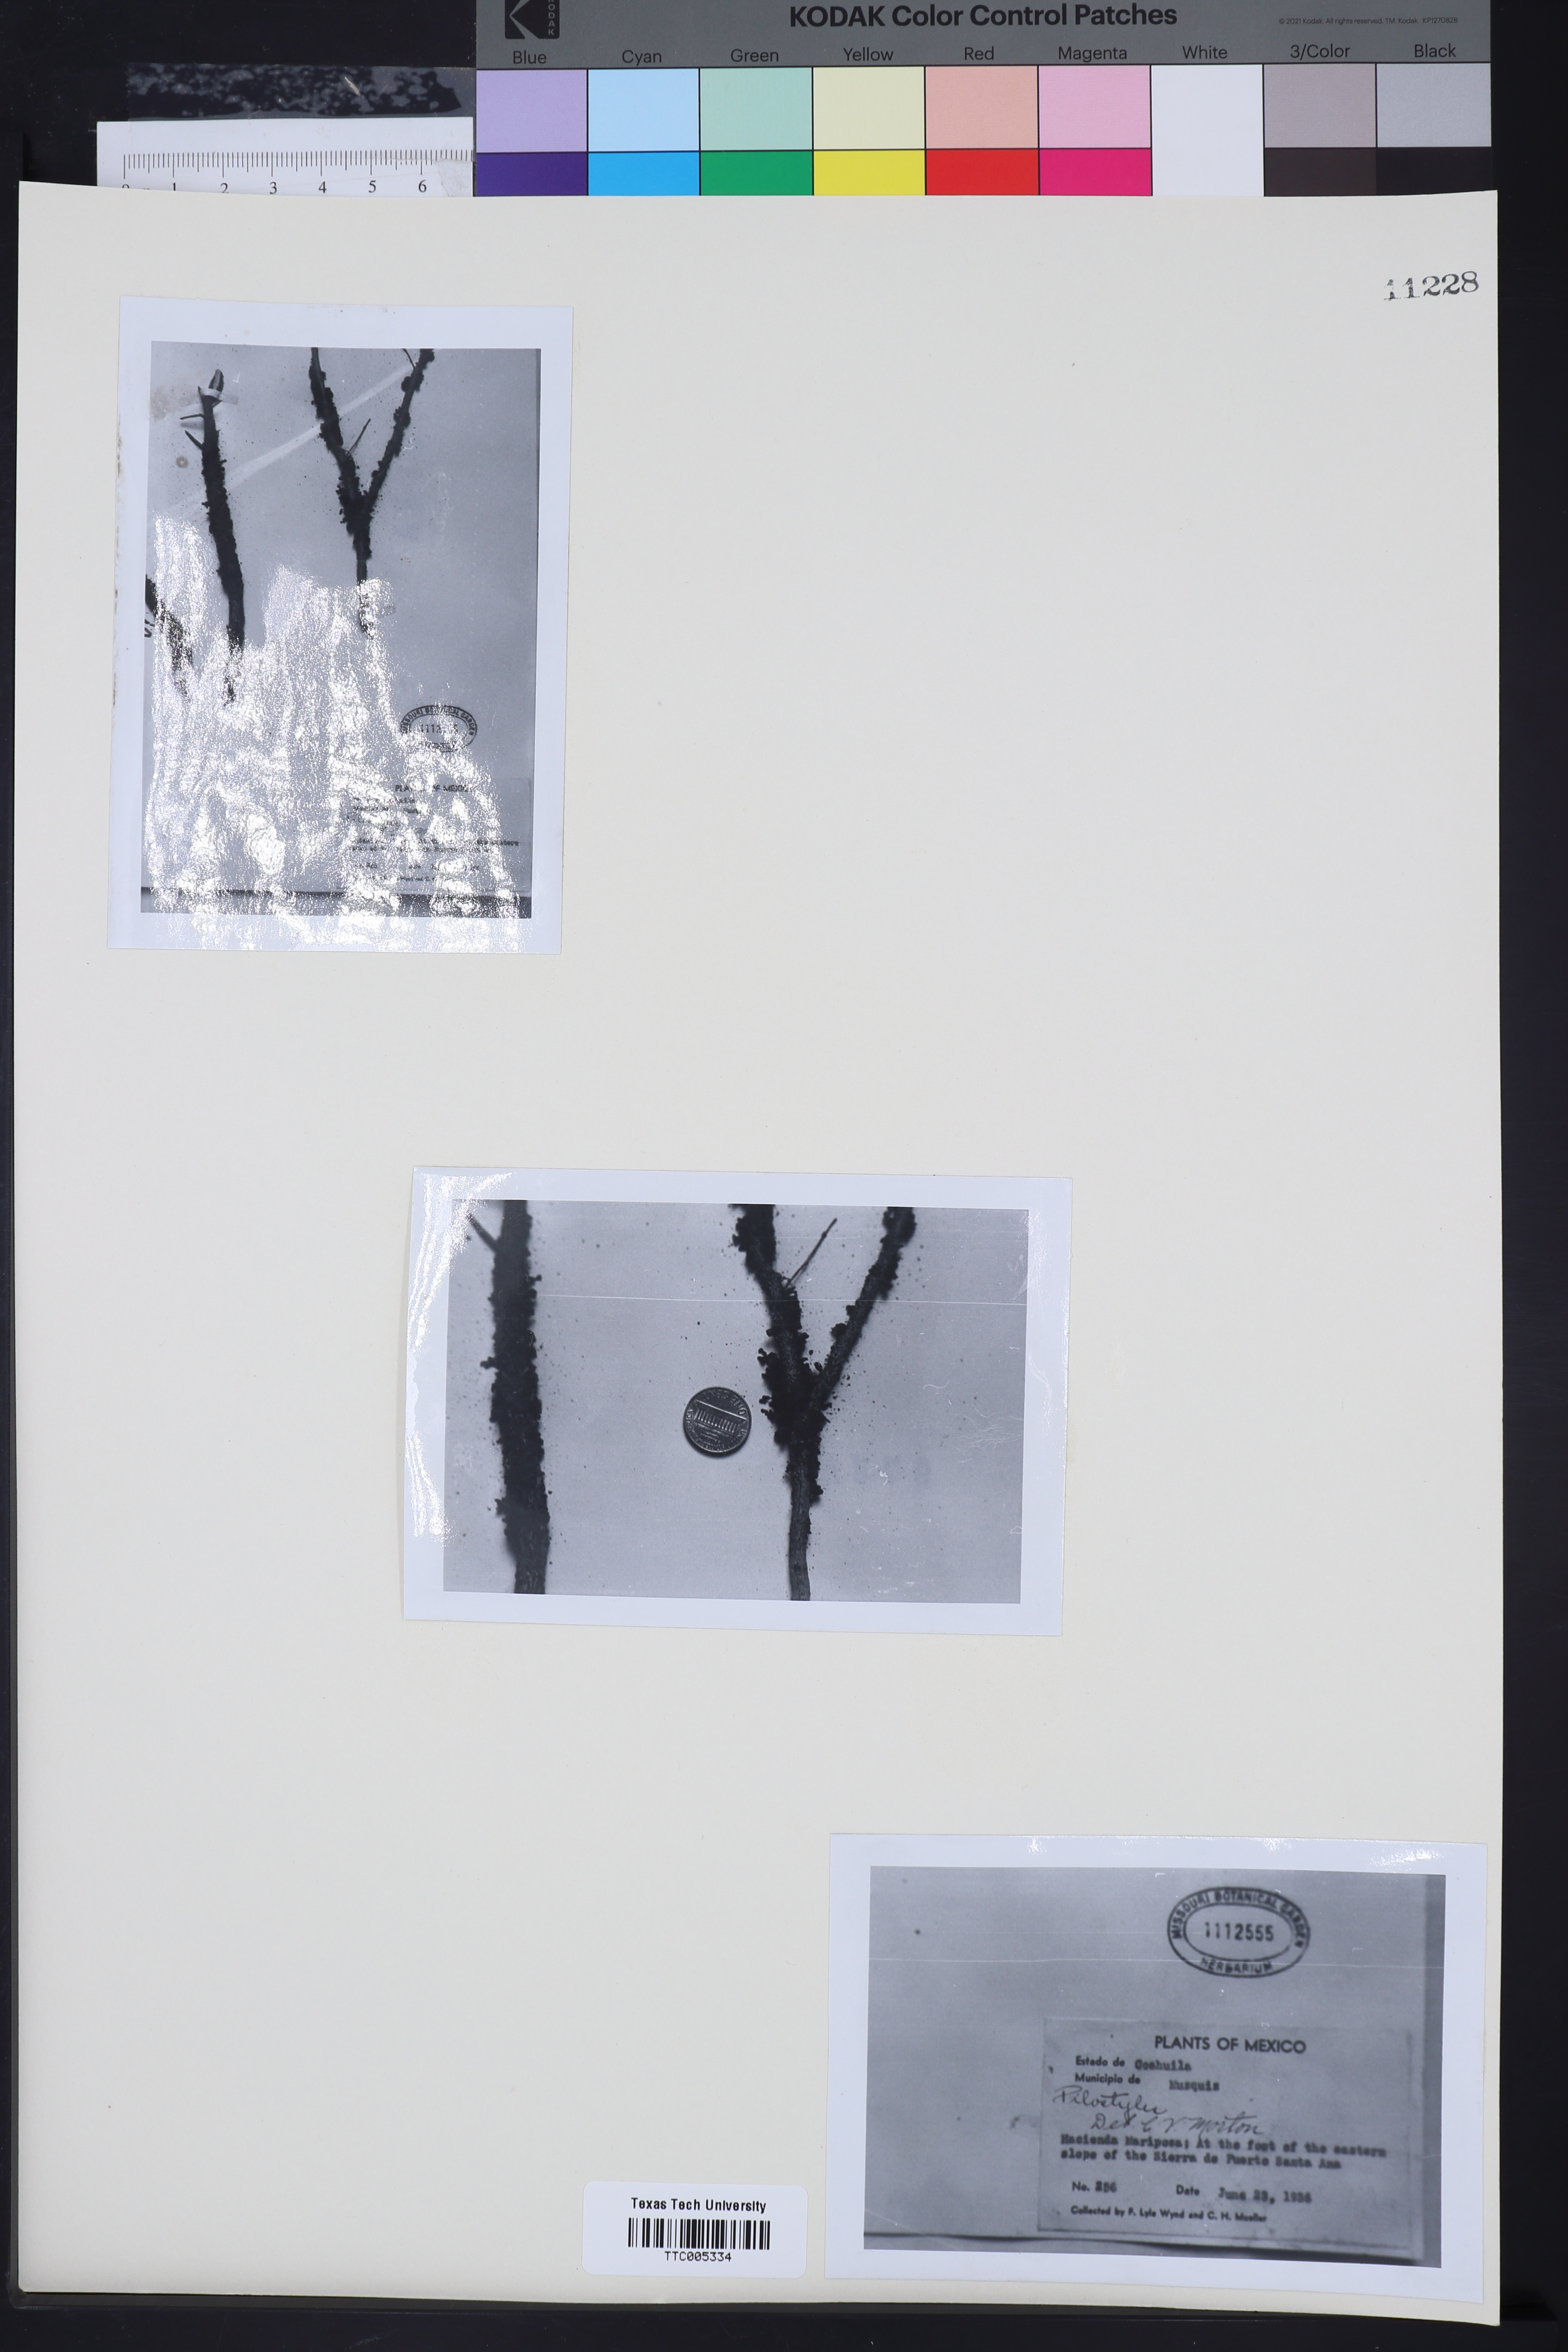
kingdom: Plantae
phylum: Tracheophyta
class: Magnoliopsida
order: Cucurbitales
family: Apodanthaceae
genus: Pilostyles
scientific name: Pilostyles
